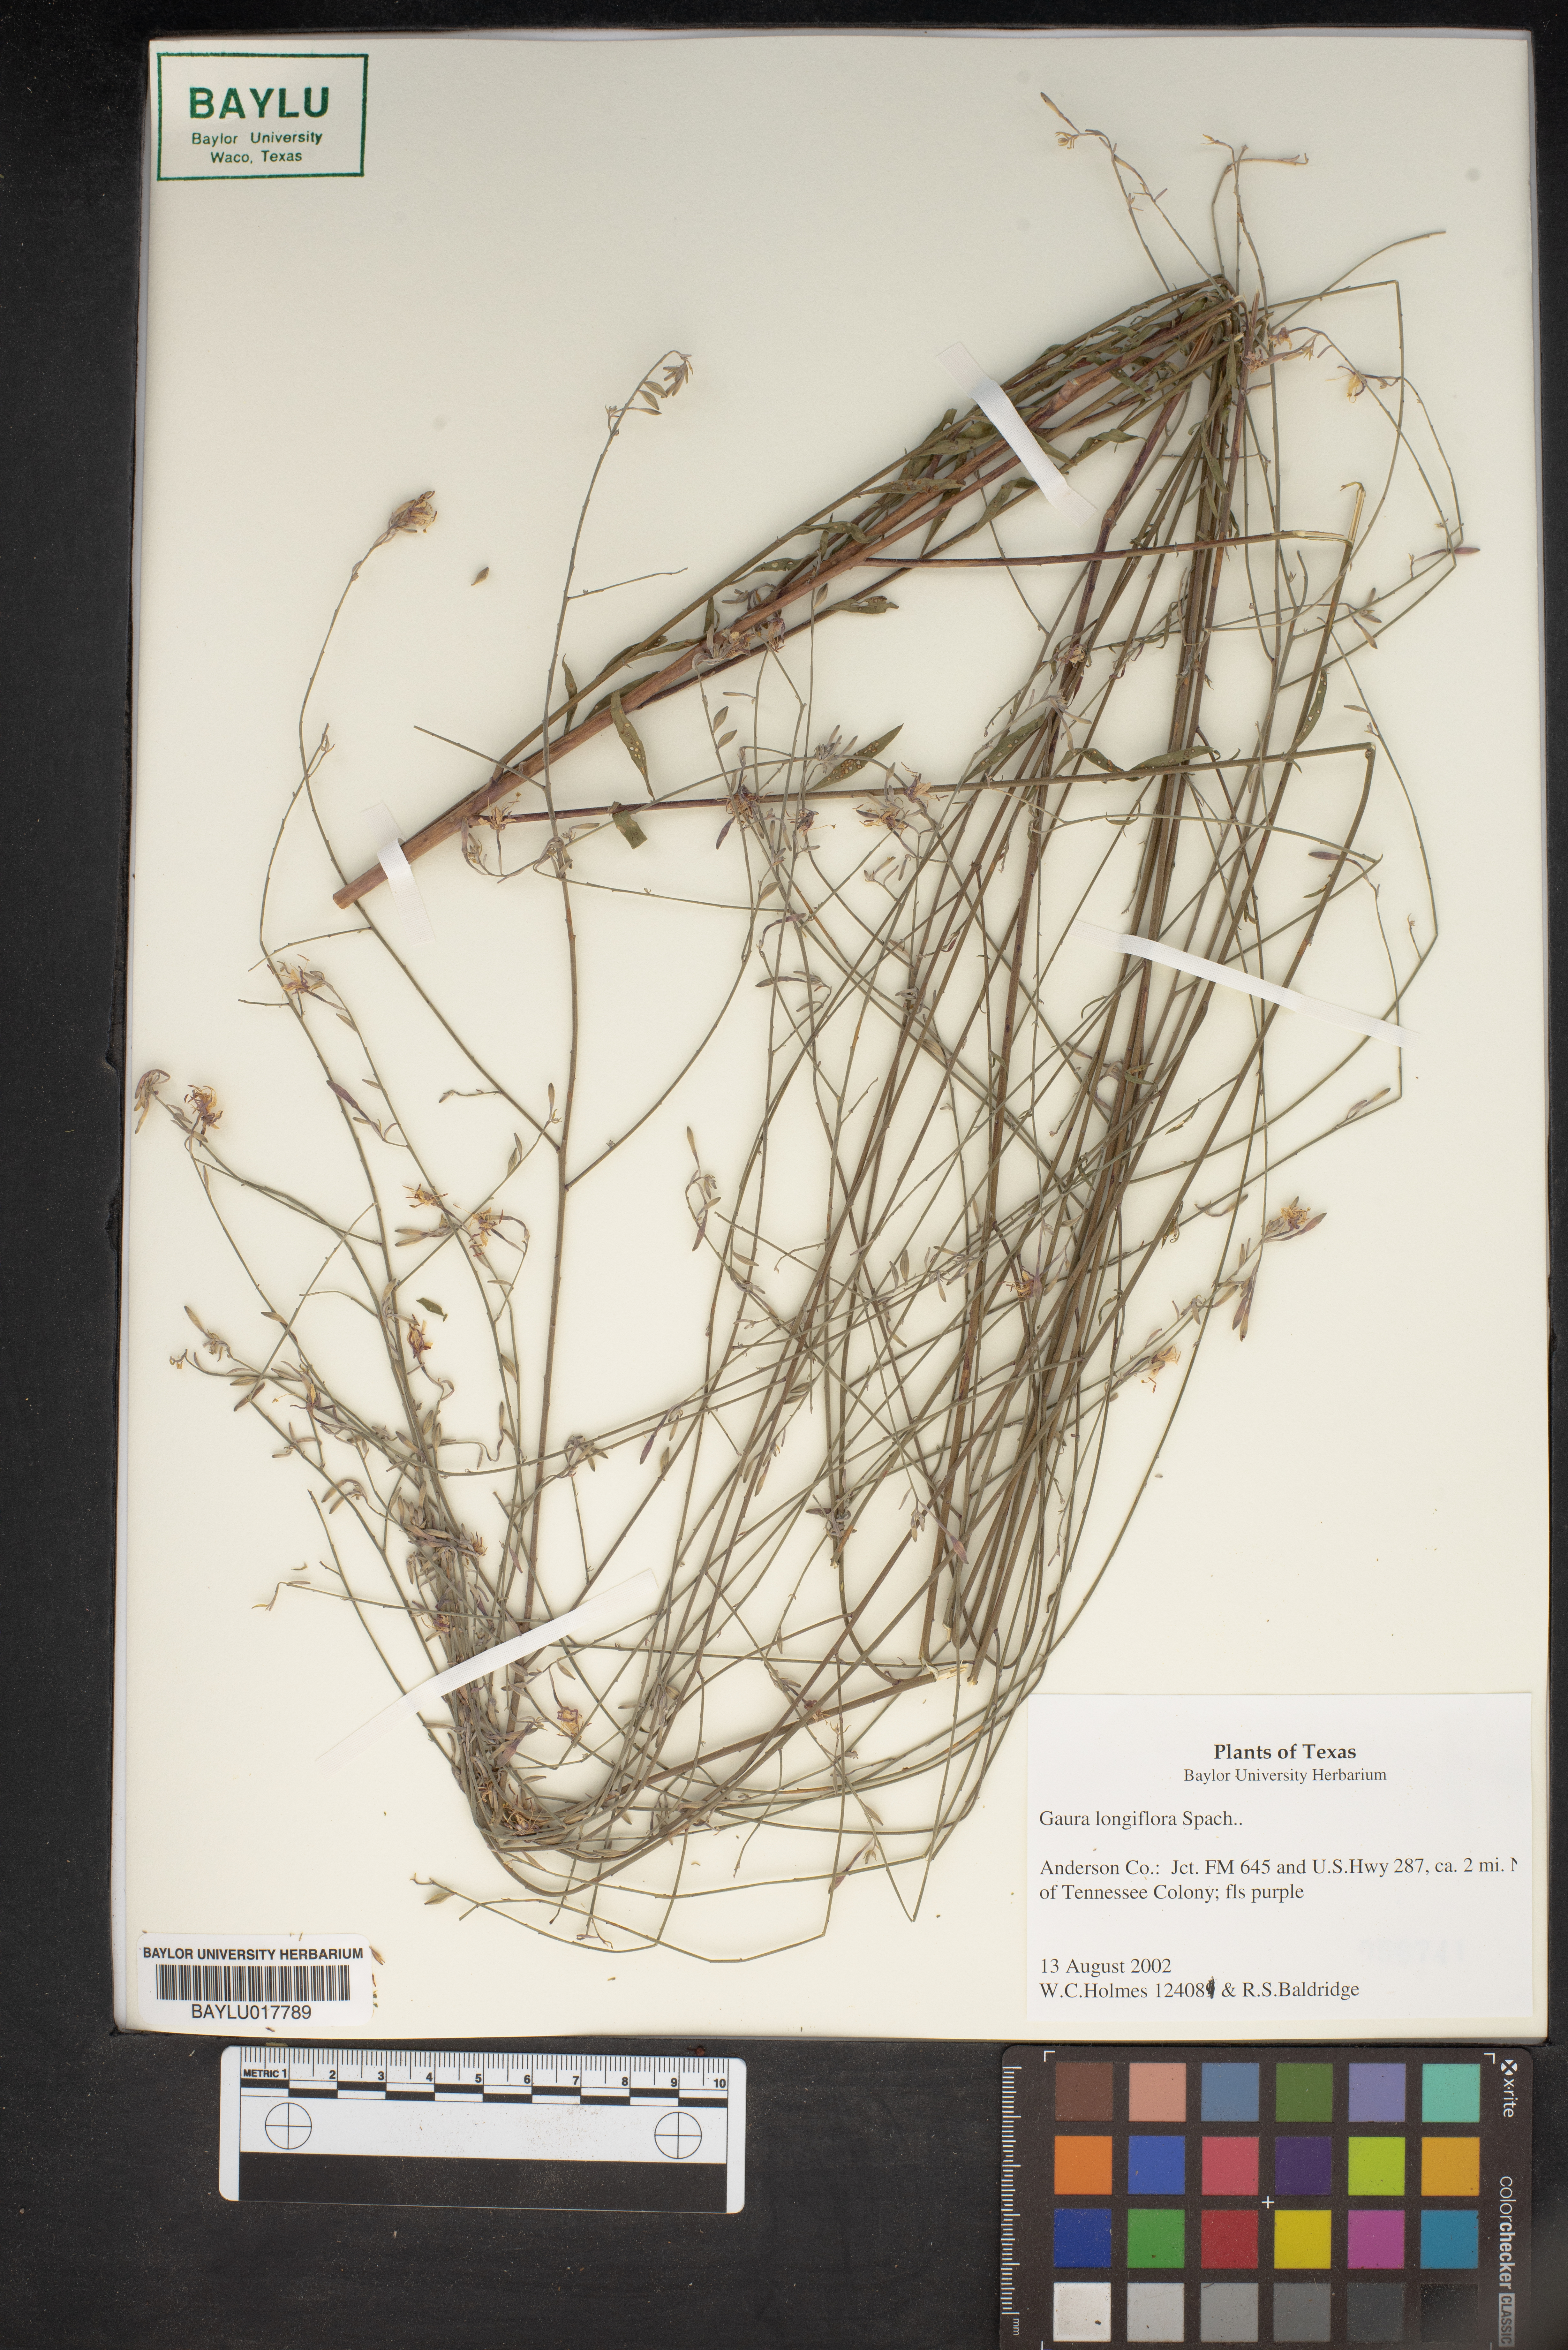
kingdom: Plantae
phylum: Tracheophyta
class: Magnoliopsida
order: Myrtales
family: Onagraceae
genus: Oenothera
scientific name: Oenothera filiformis
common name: Longflower beeblossom
